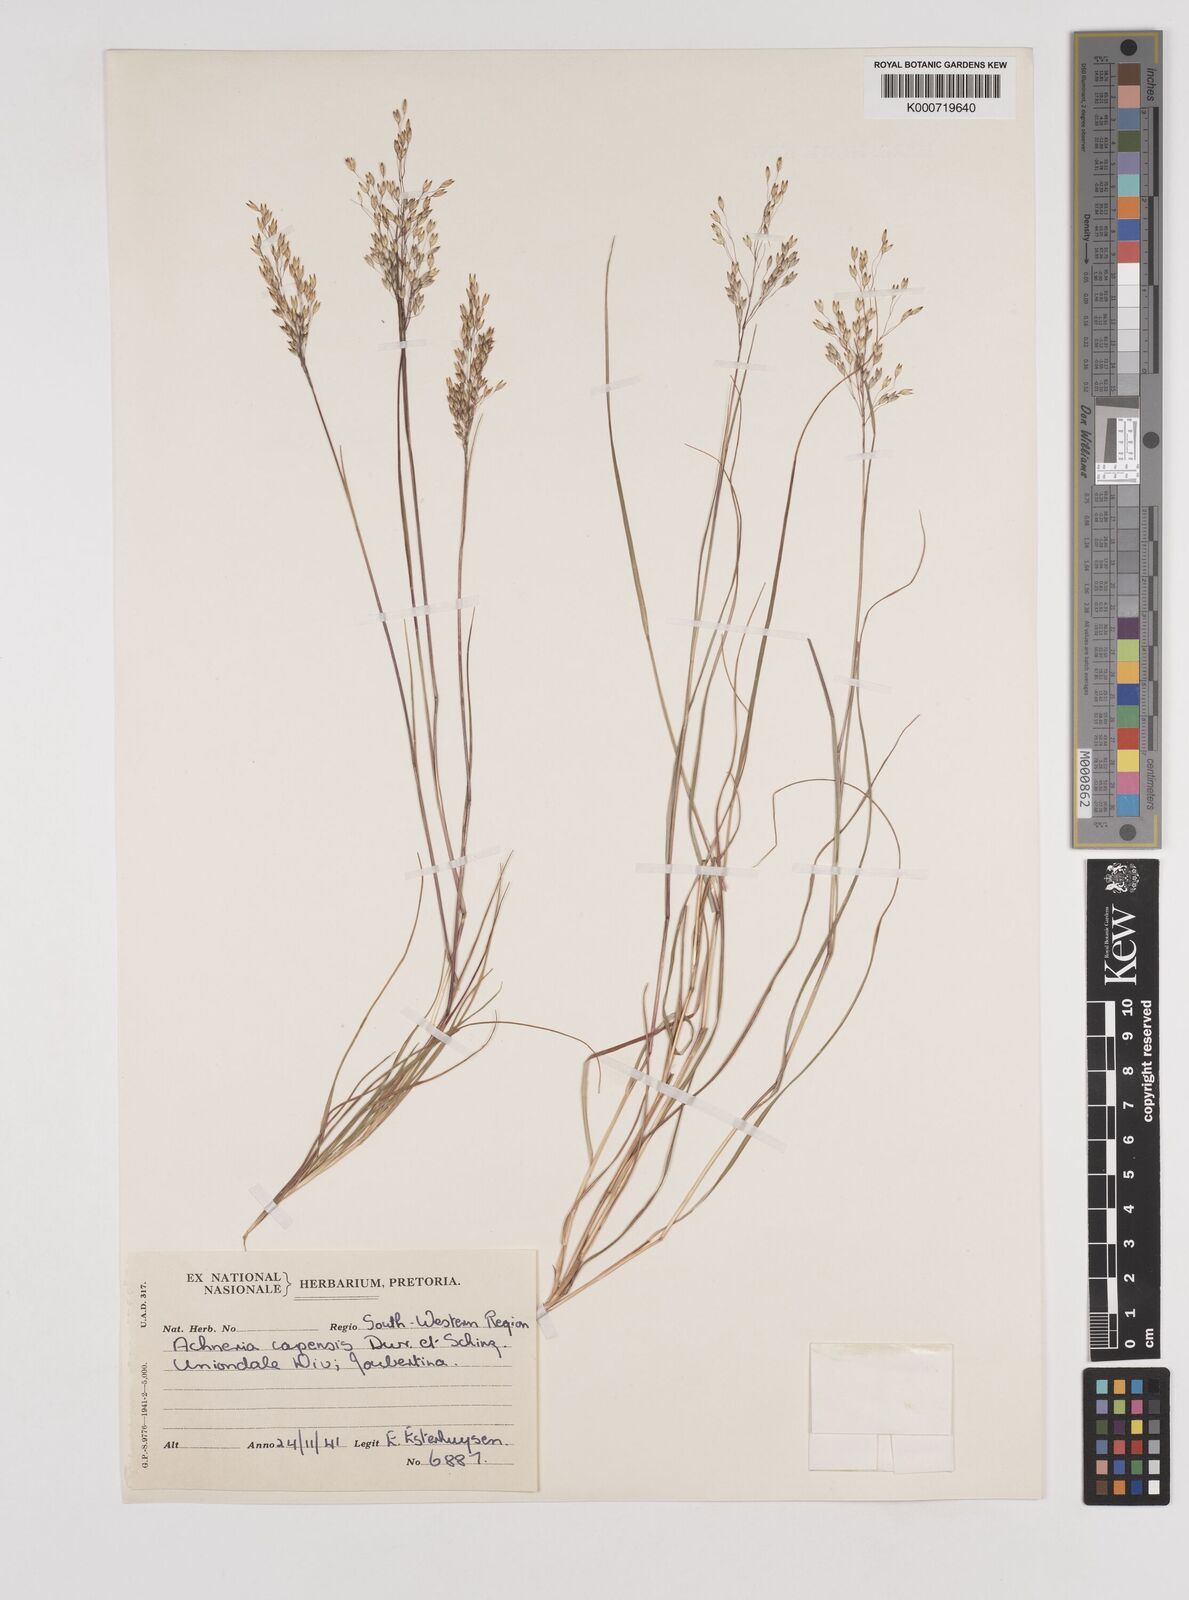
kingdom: Plantae
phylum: Tracheophyta
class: Liliopsida
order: Poales
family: Poaceae
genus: Pentameris
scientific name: Pentameris malouinensis
